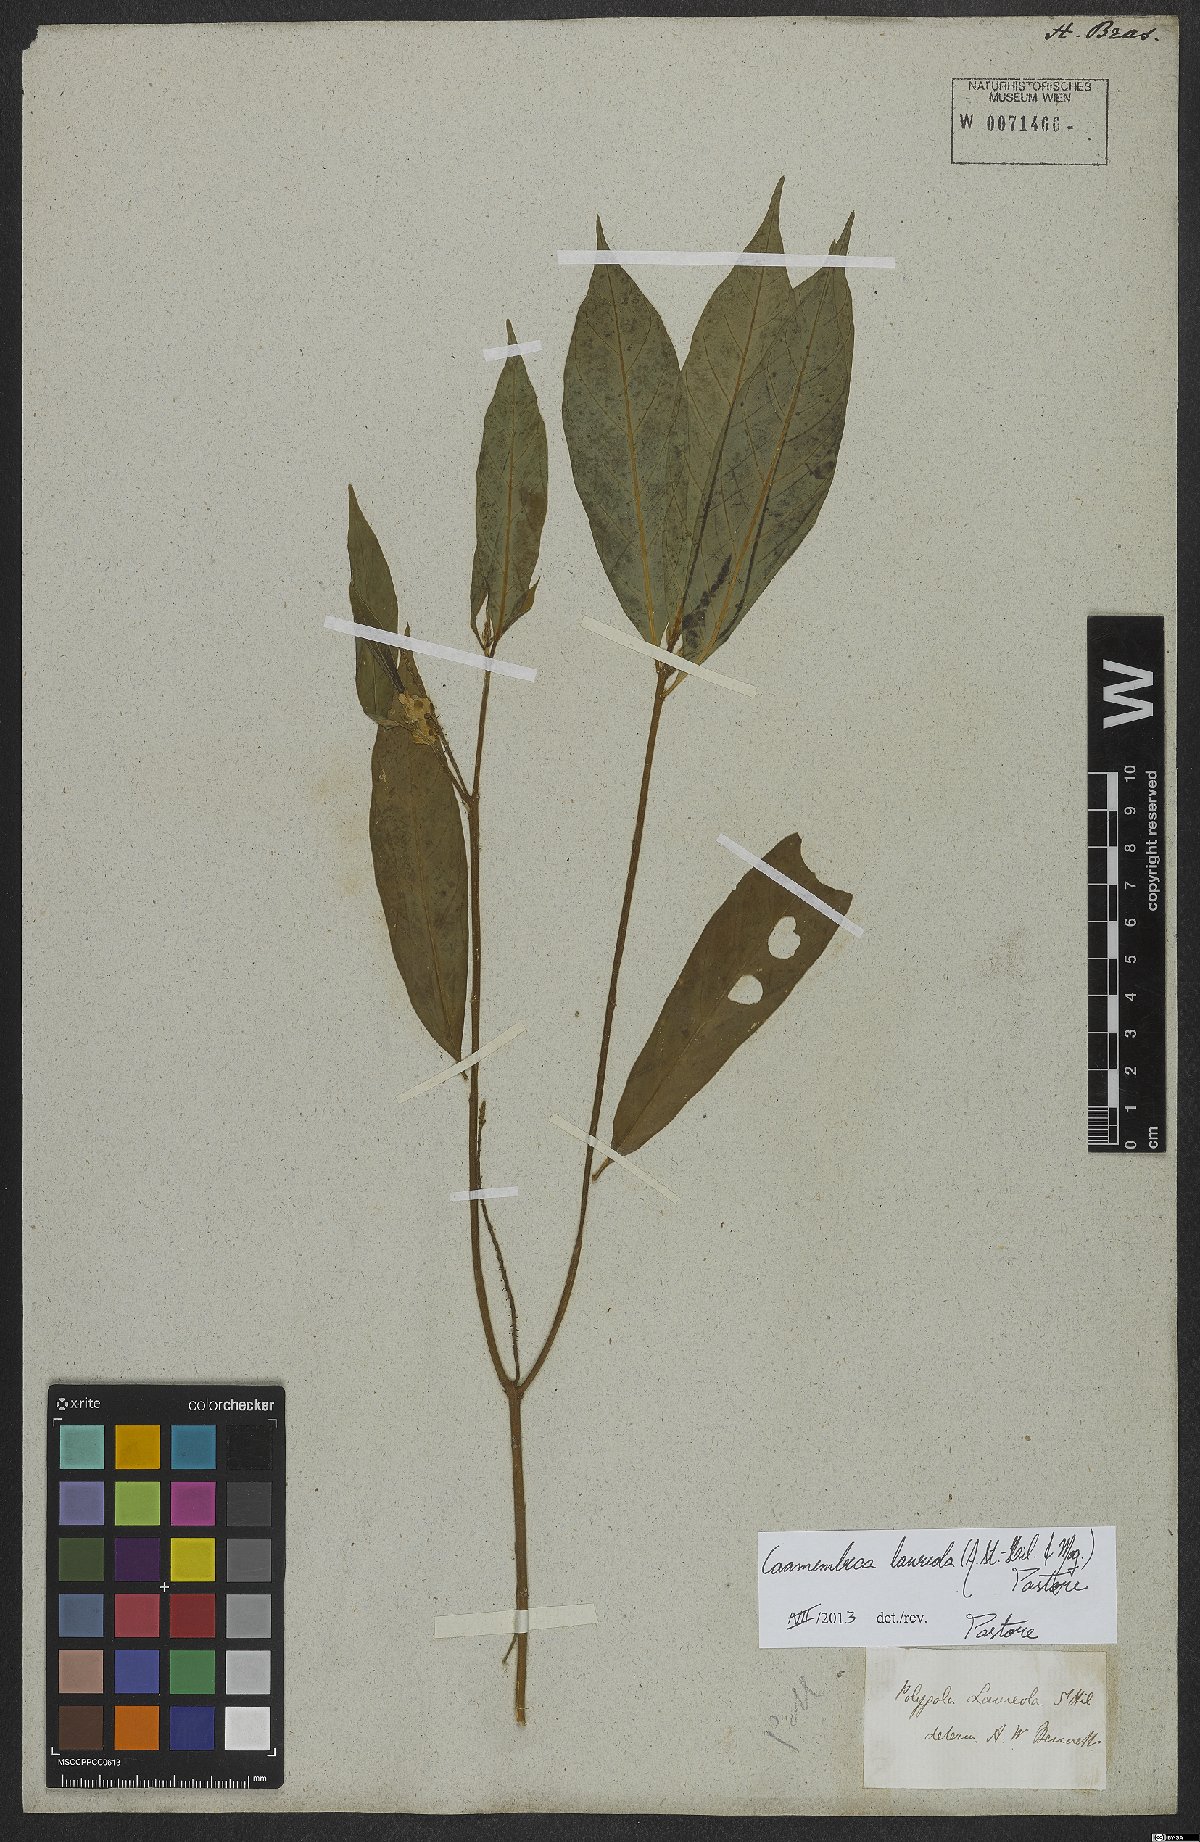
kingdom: Plantae
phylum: Tracheophyta
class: Magnoliopsida
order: Fabales
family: Polygalaceae
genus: Caamembeca
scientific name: Caamembeca salicifolia
